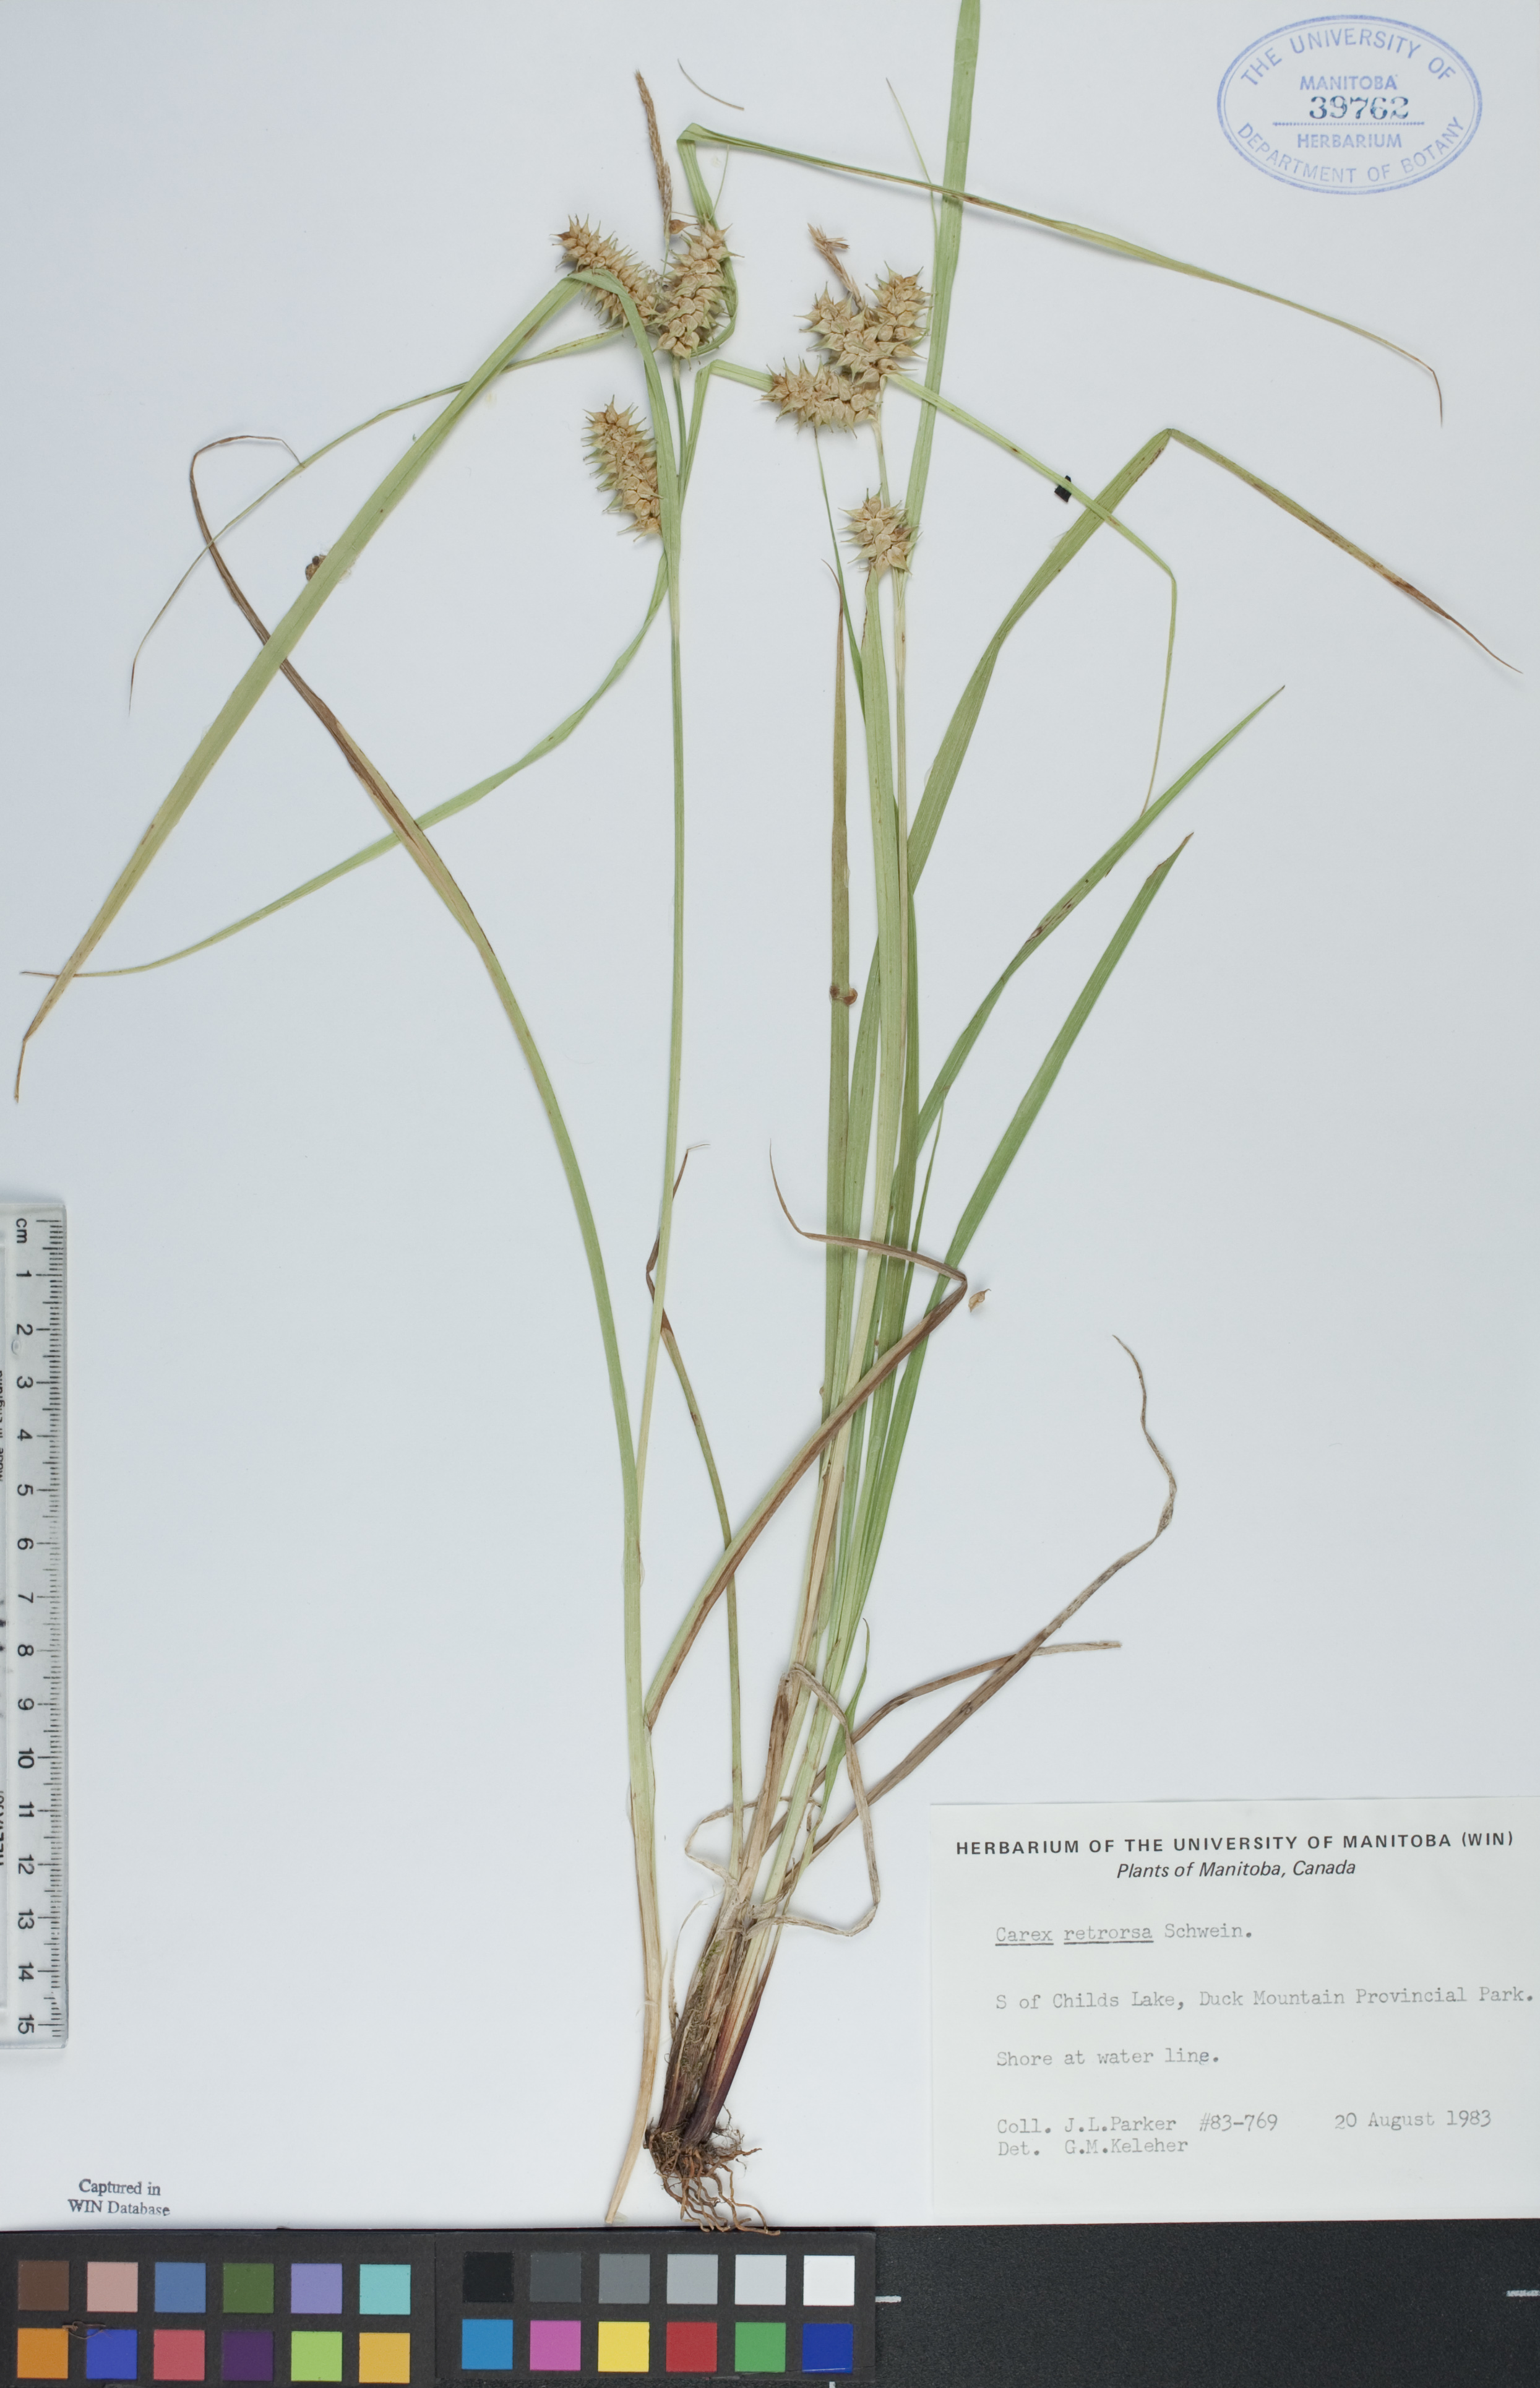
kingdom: Plantae
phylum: Tracheophyta
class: Liliopsida
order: Poales
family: Cyperaceae
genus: Carex
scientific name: Carex retrorsa
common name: Knot-sheath sedge
